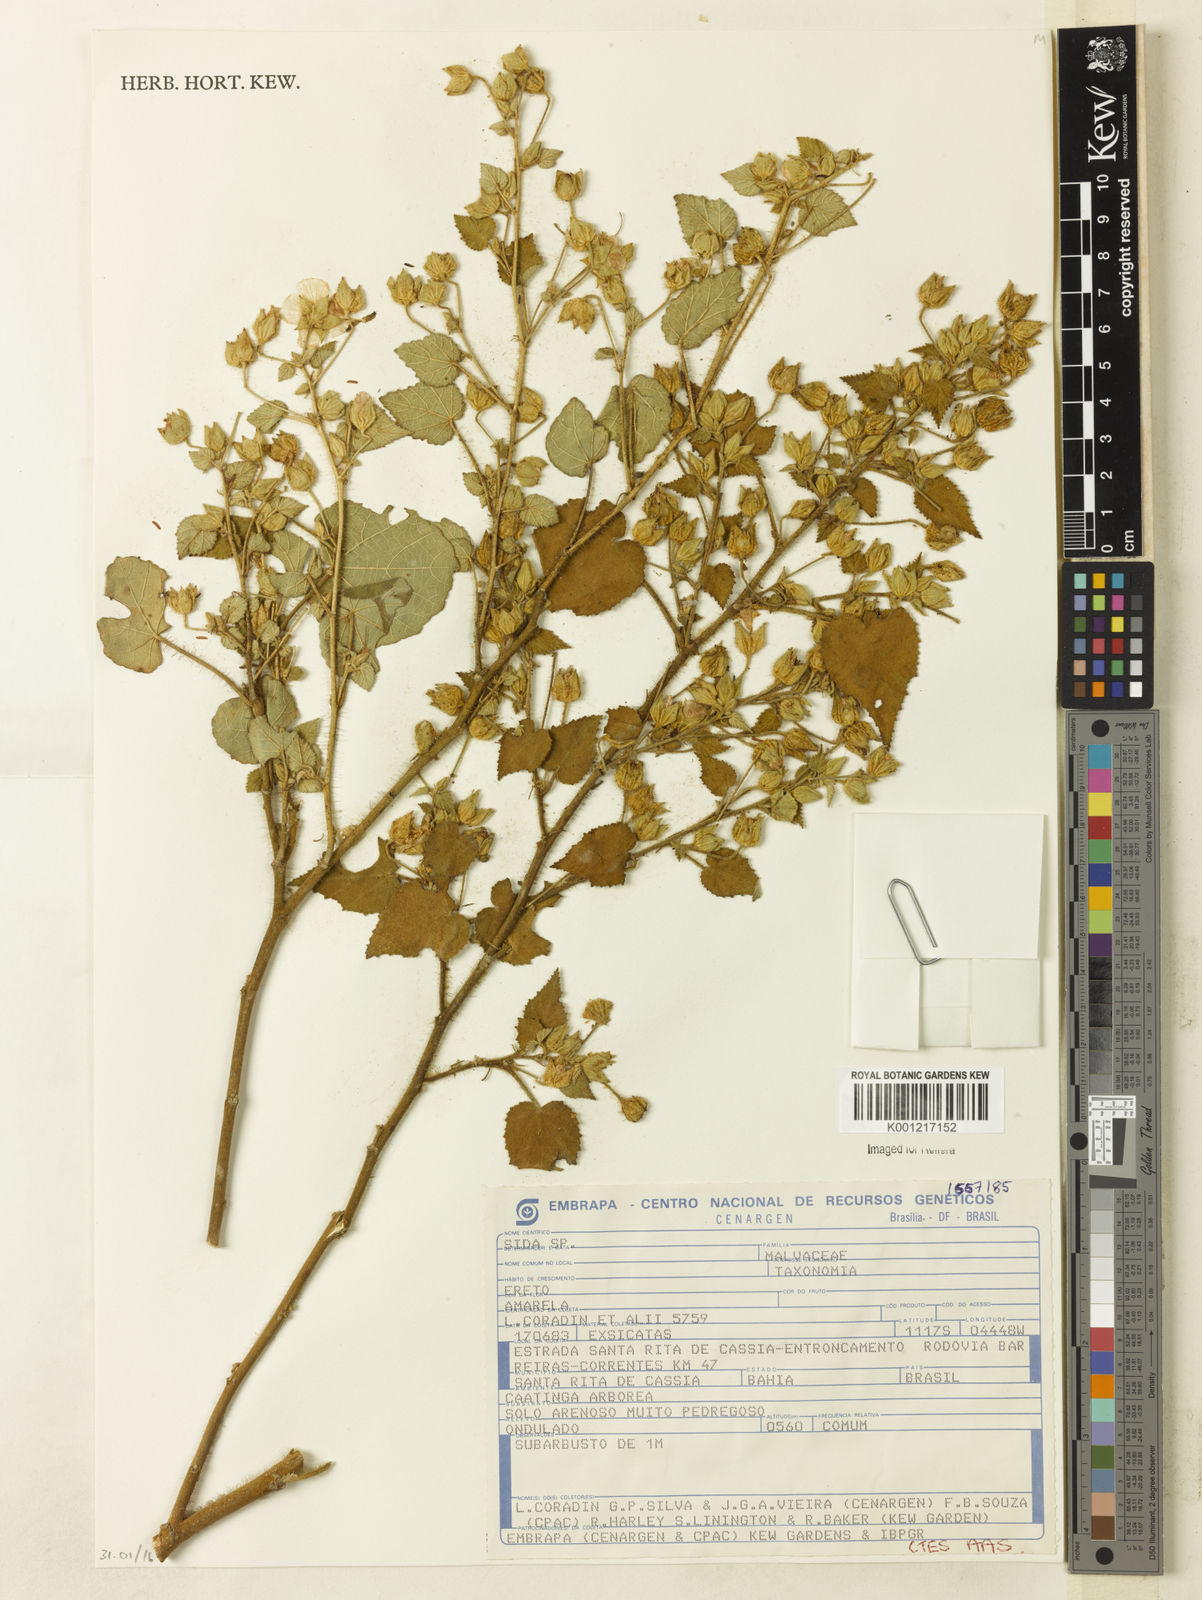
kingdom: Plantae
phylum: Tracheophyta
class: Magnoliopsida
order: Malvales
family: Malvaceae
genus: Sida
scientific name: Sida
